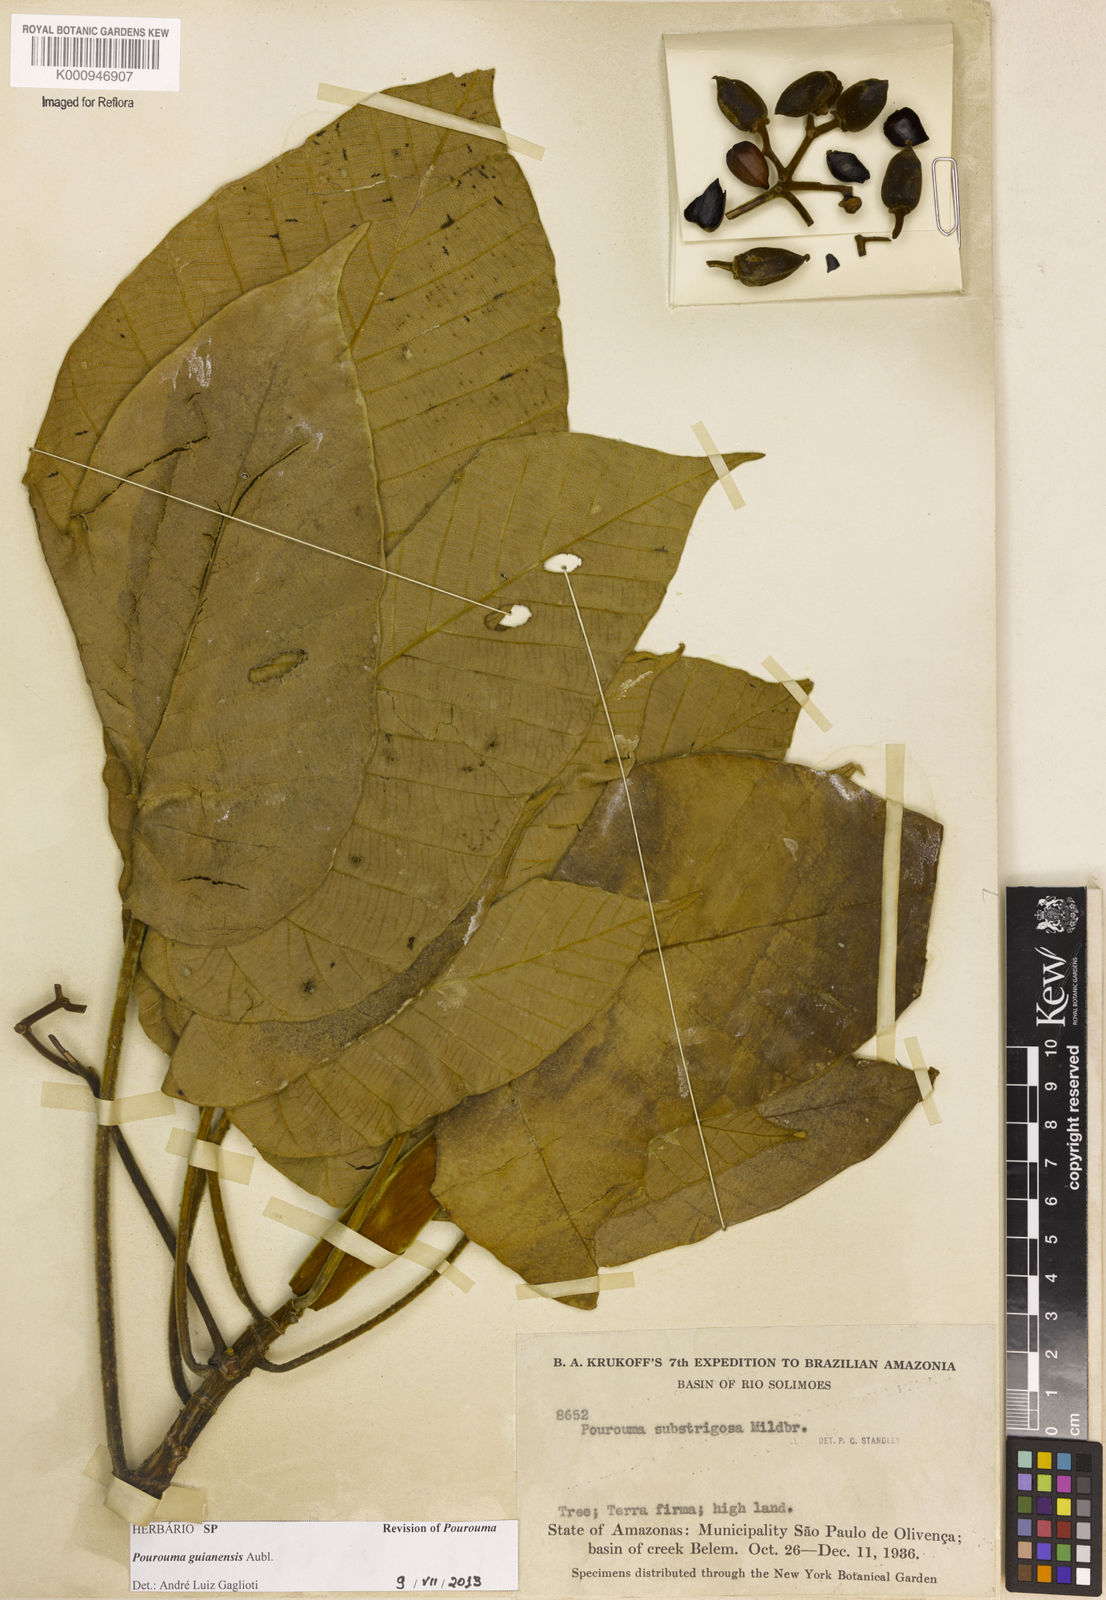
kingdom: Plantae
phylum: Tracheophyta
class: Magnoliopsida
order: Rosales
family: Urticaceae
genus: Pourouma
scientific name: Pourouma guianensis
